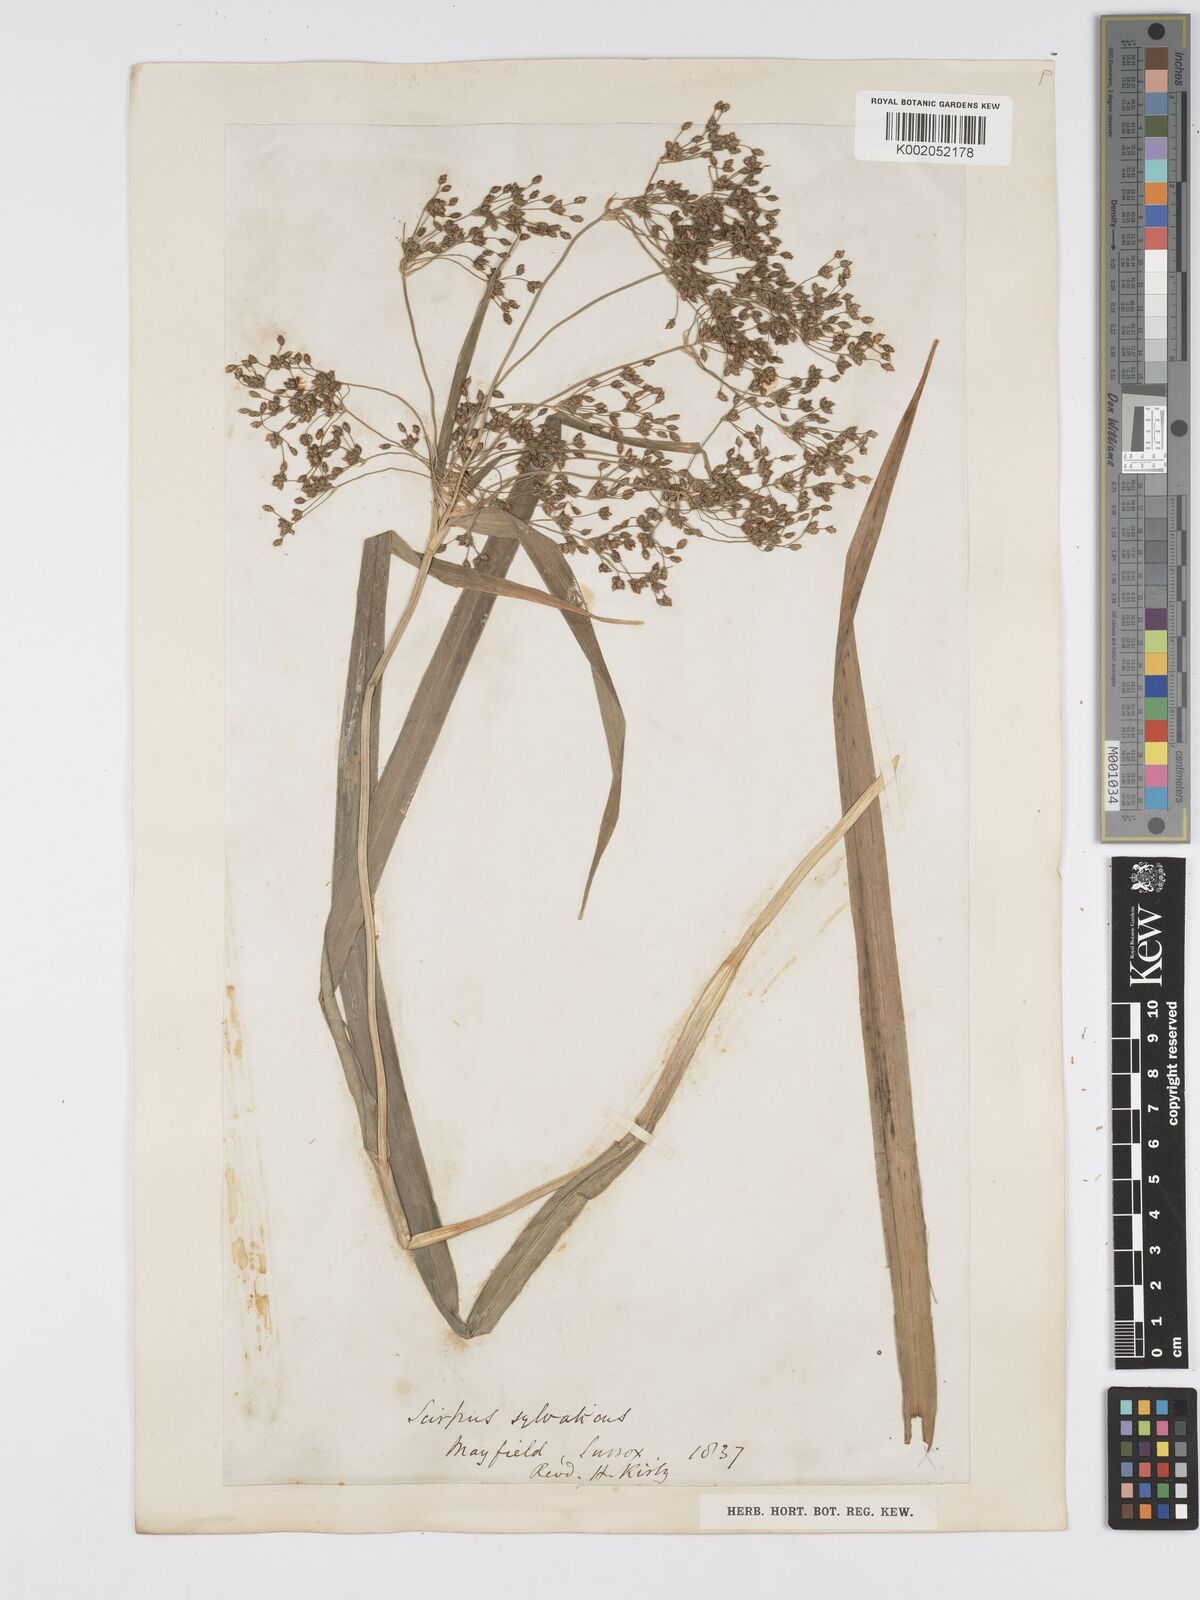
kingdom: Plantae
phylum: Tracheophyta
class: Liliopsida
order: Poales
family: Cyperaceae
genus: Scirpus
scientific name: Scirpus sylvaticus
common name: Wood club-rush
